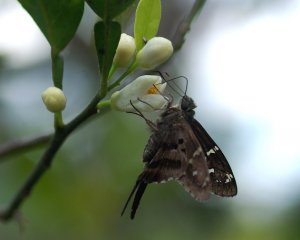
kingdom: Animalia
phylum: Arthropoda
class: Insecta
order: Lepidoptera
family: Hesperiidae
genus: Urbanus
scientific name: Urbanus proteus
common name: Long-tailed Skipper
